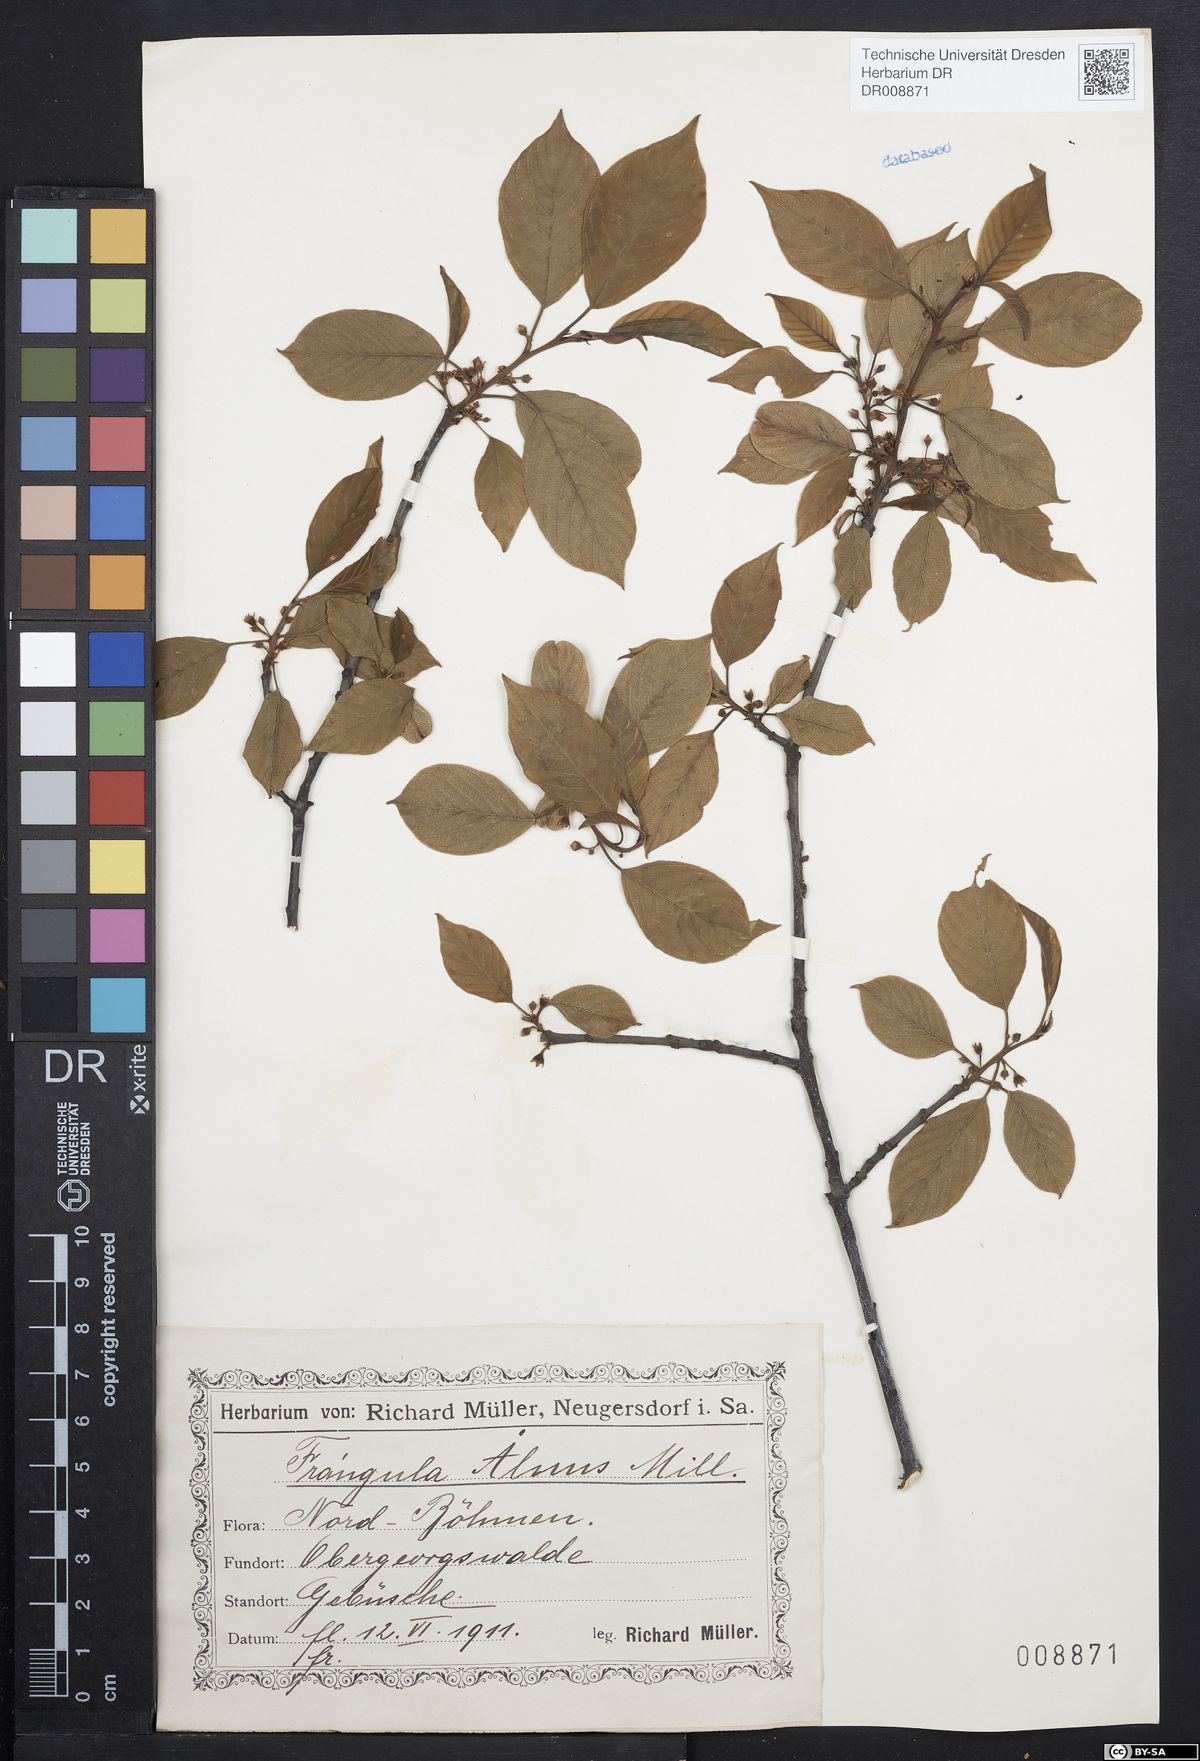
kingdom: Plantae
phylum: Tracheophyta
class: Magnoliopsida
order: Rosales
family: Rhamnaceae
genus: Frangula
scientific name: Frangula alnus
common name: Alder buckthorn
